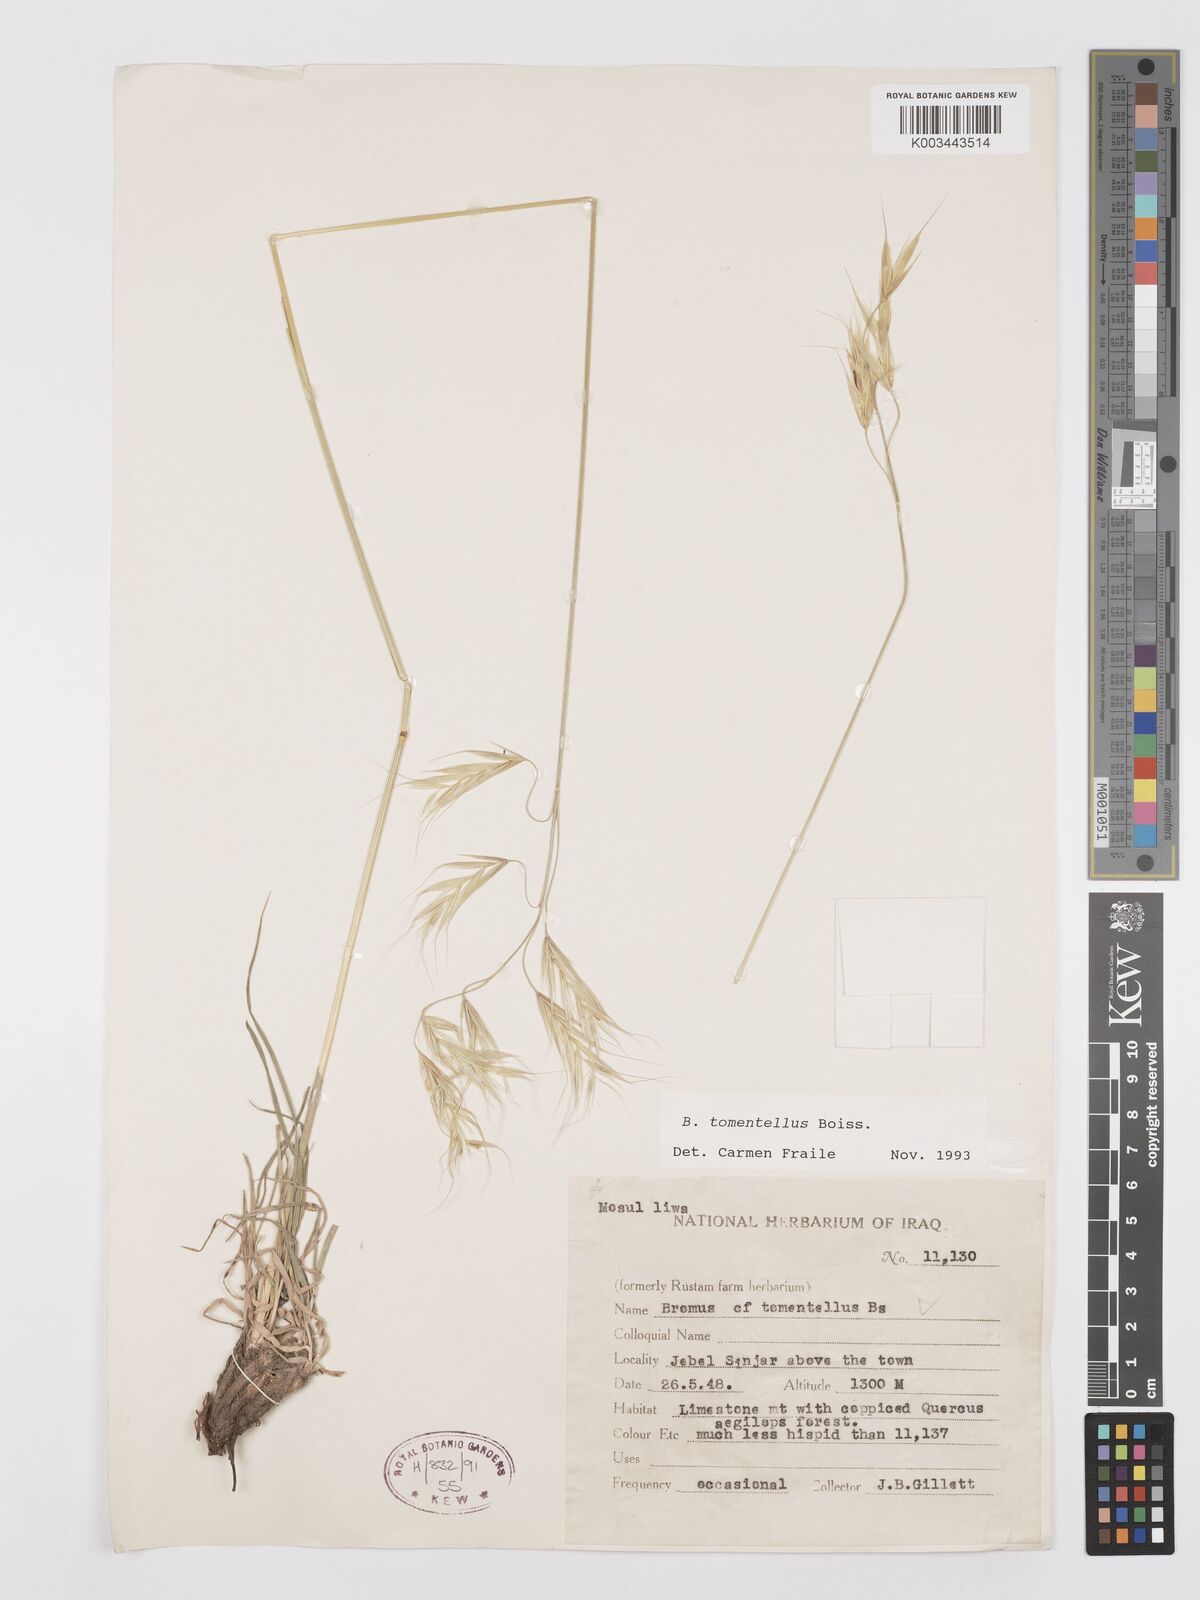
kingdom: Plantae
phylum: Tracheophyta
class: Liliopsida
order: Poales
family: Poaceae
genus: Bromus
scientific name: Bromus tomentellus
